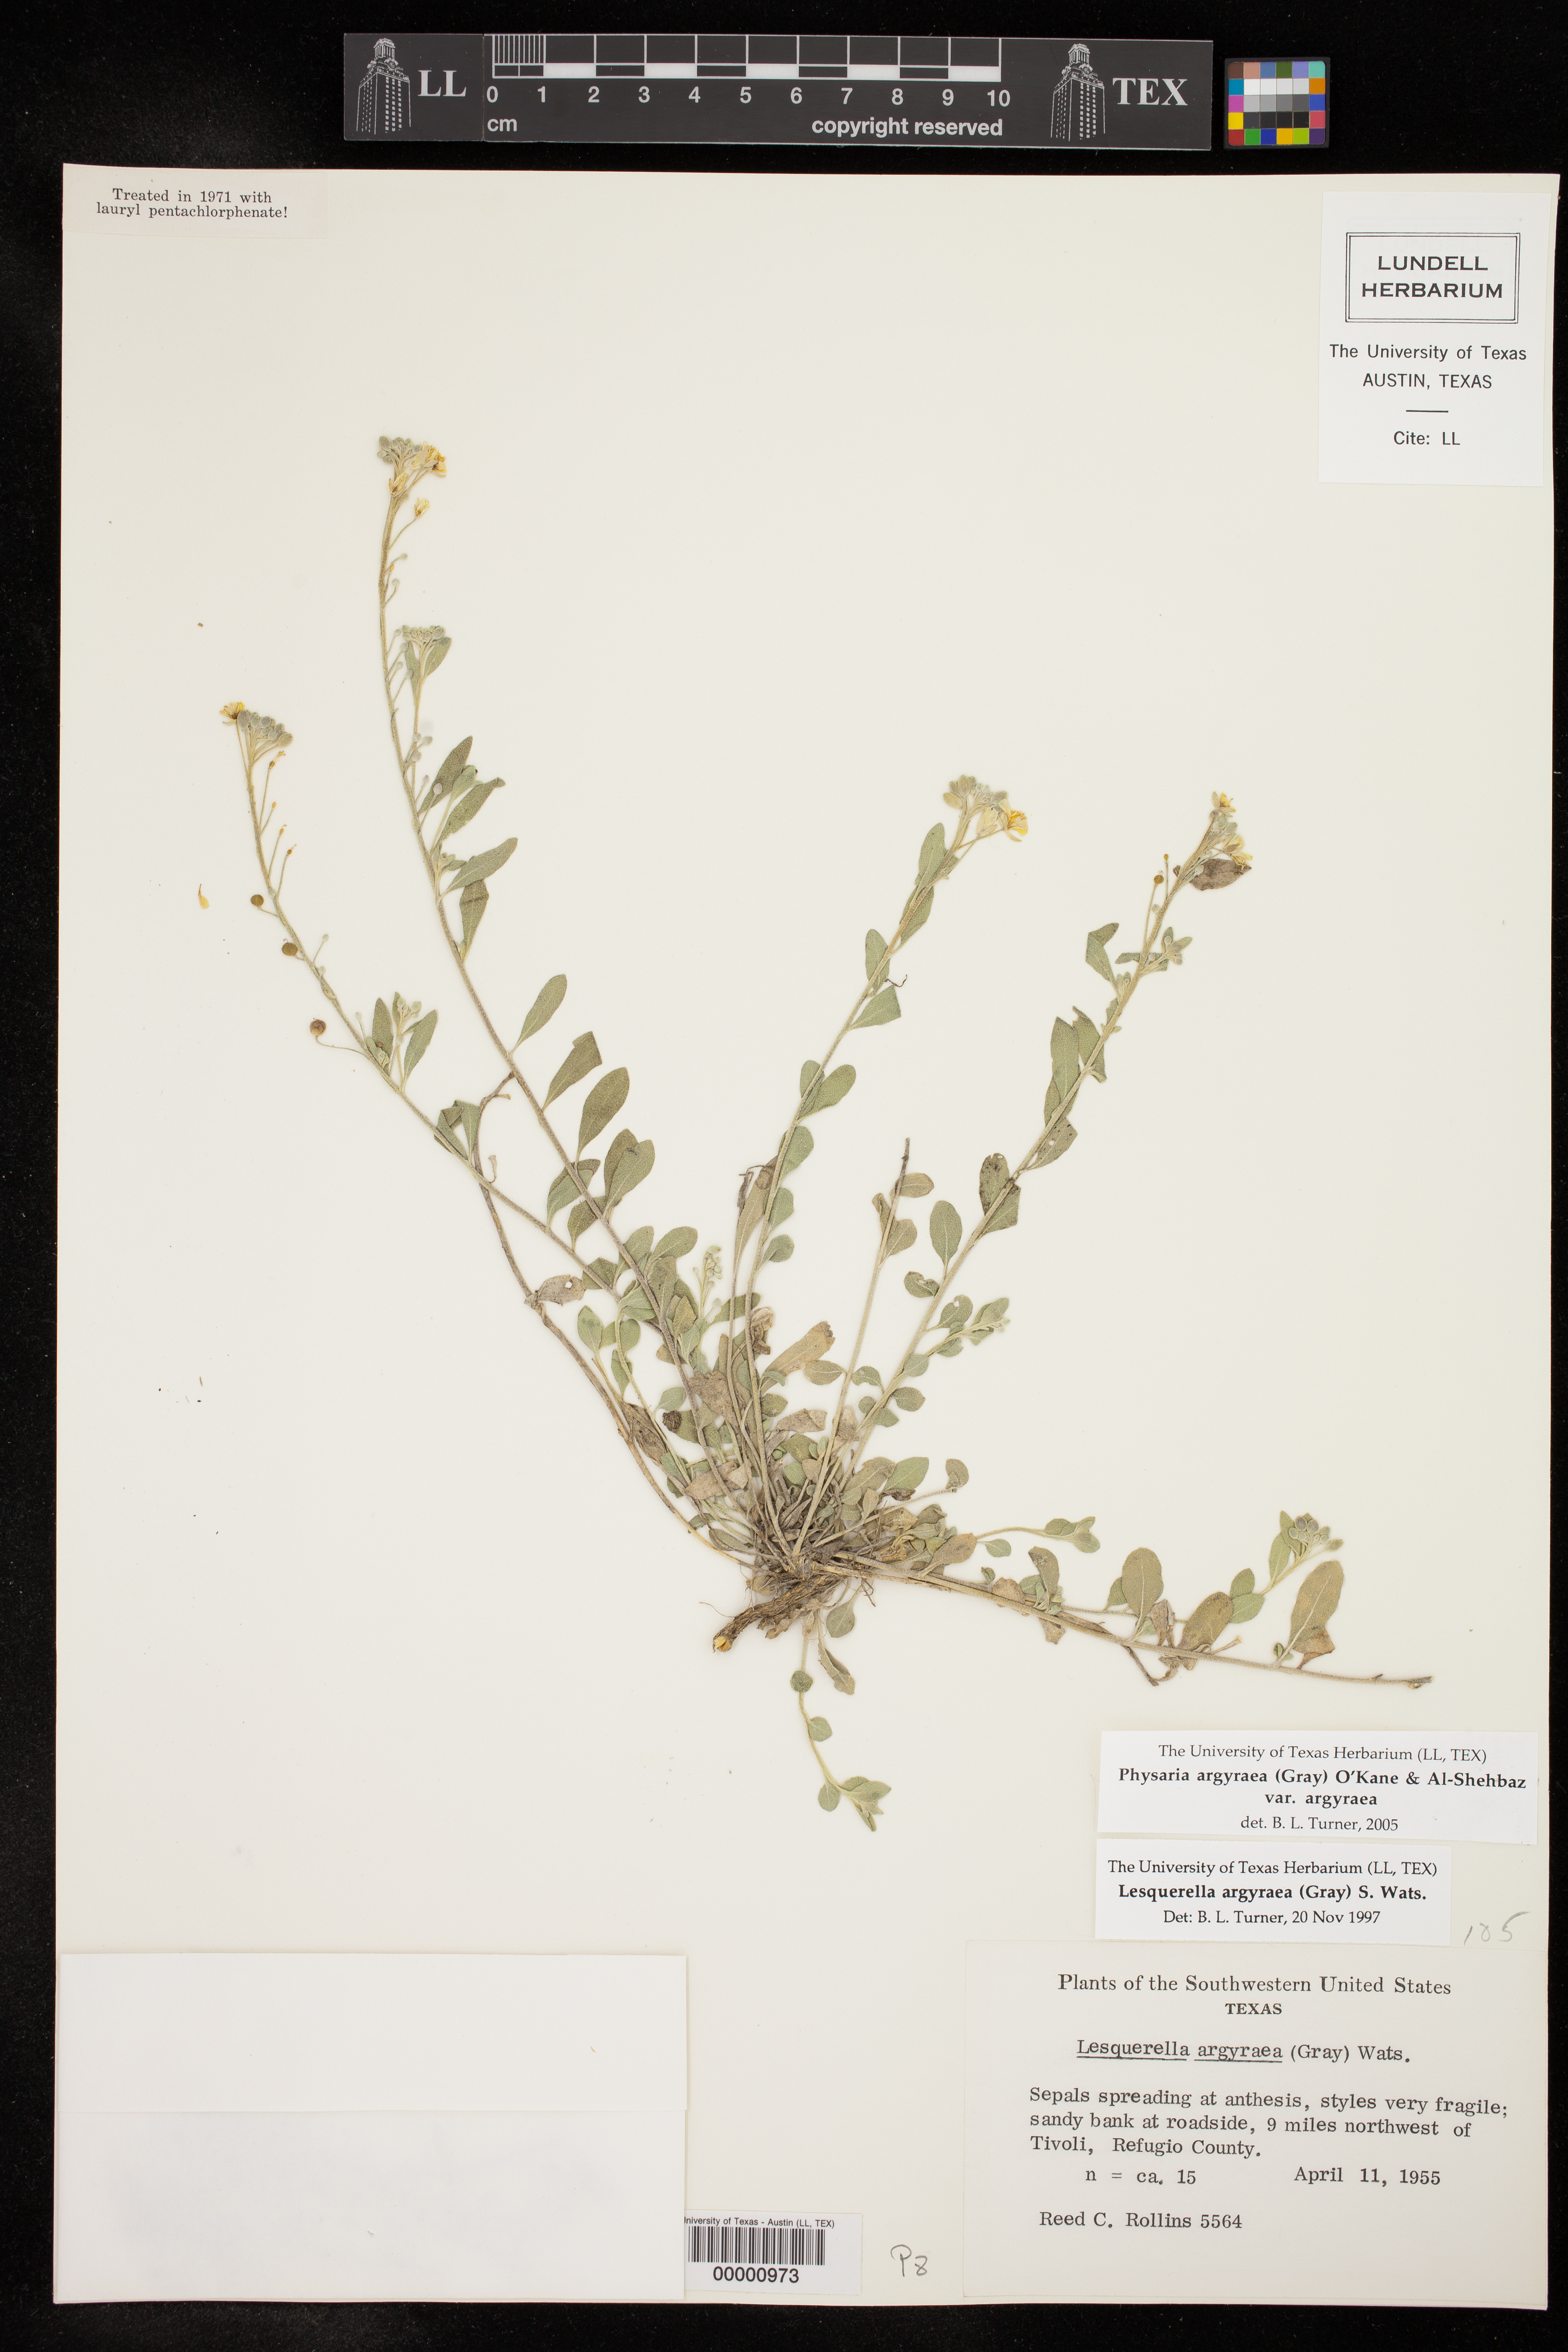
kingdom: Plantae
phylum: Tracheophyta
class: Magnoliopsida
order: Brassicales
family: Brassicaceae
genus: Physaria
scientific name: Physaria argyraea
